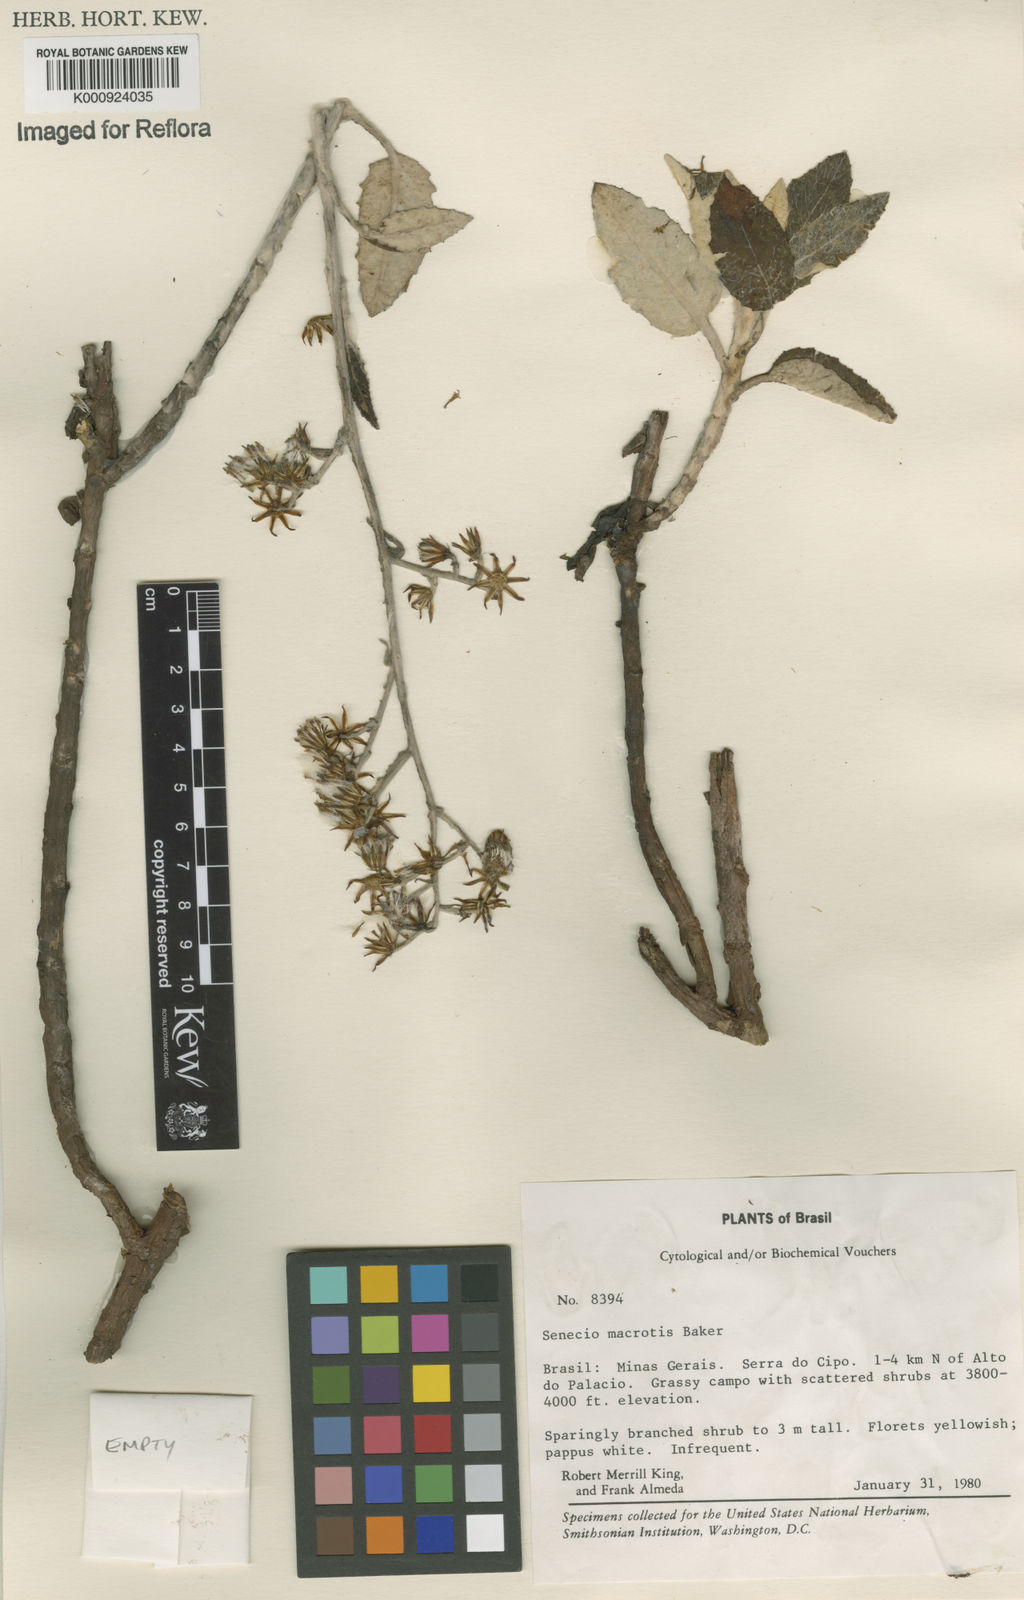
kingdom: Plantae
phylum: Tracheophyta
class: Magnoliopsida
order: Asterales
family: Asteraceae
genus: Senecio
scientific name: Senecio macrotis
